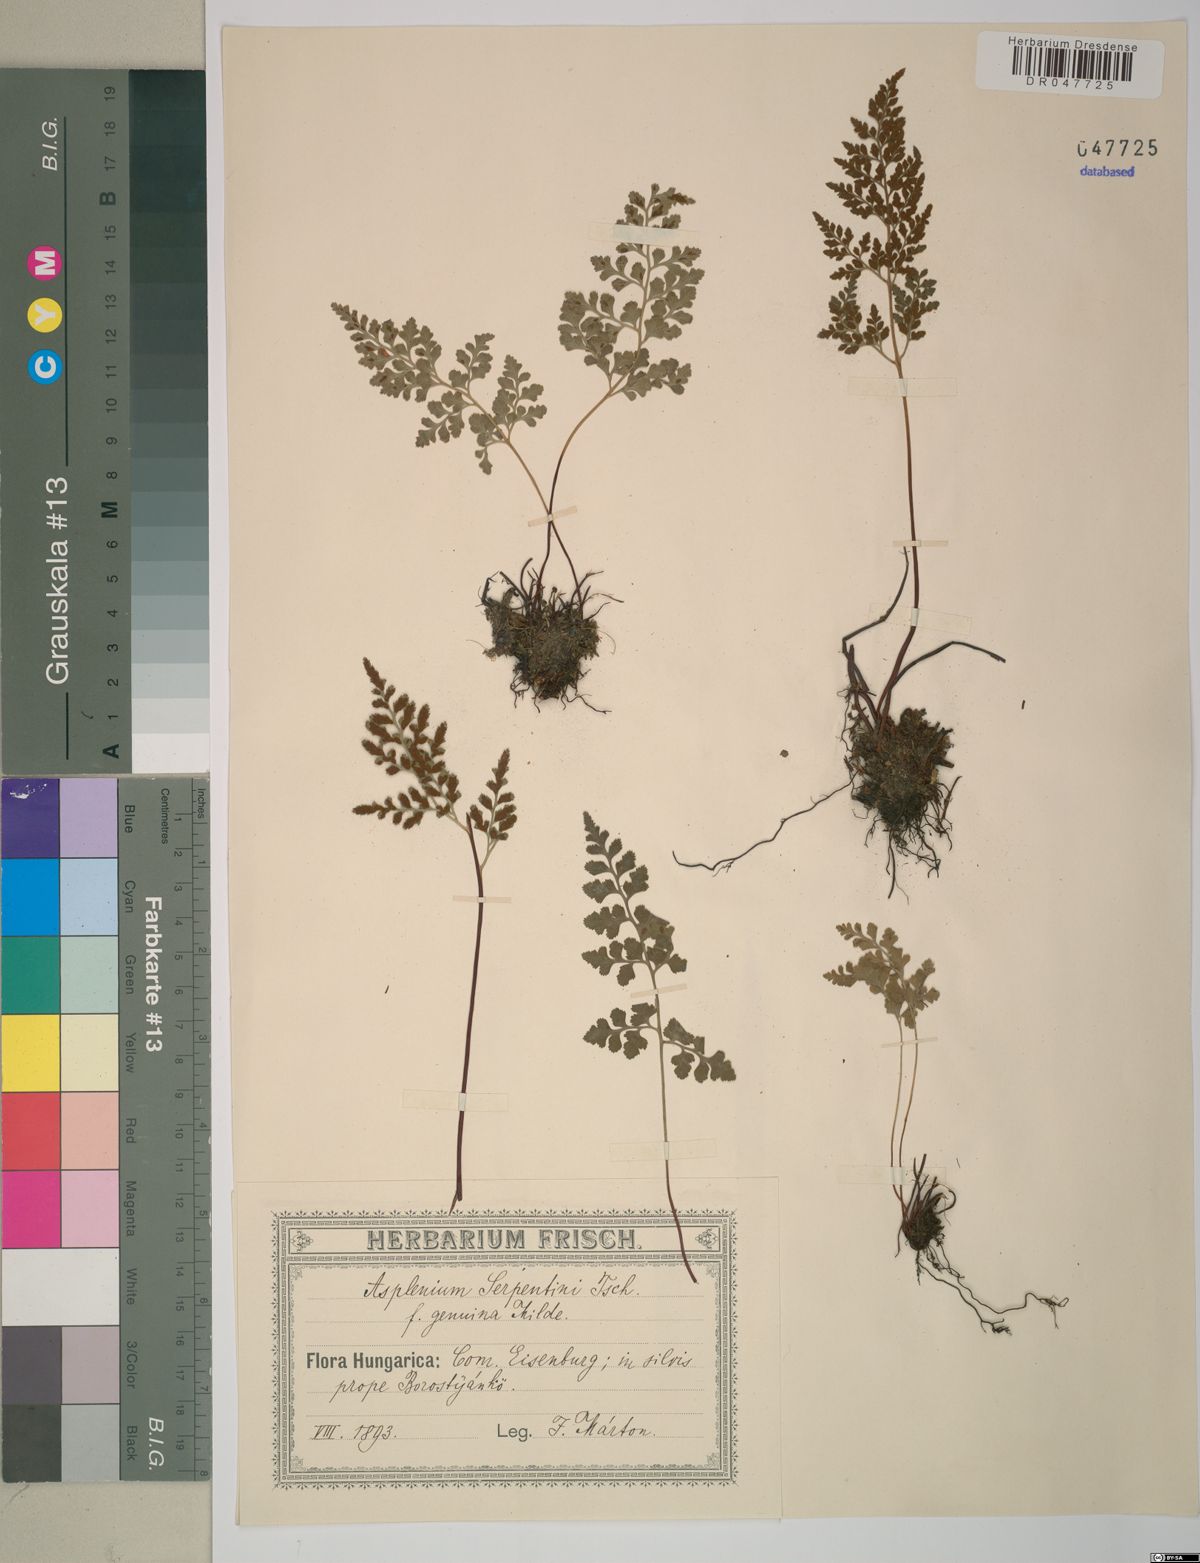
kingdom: Plantae
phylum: Tracheophyta
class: Polypodiopsida
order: Polypodiales
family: Aspleniaceae
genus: Asplenium
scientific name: Asplenium cuneifolium
